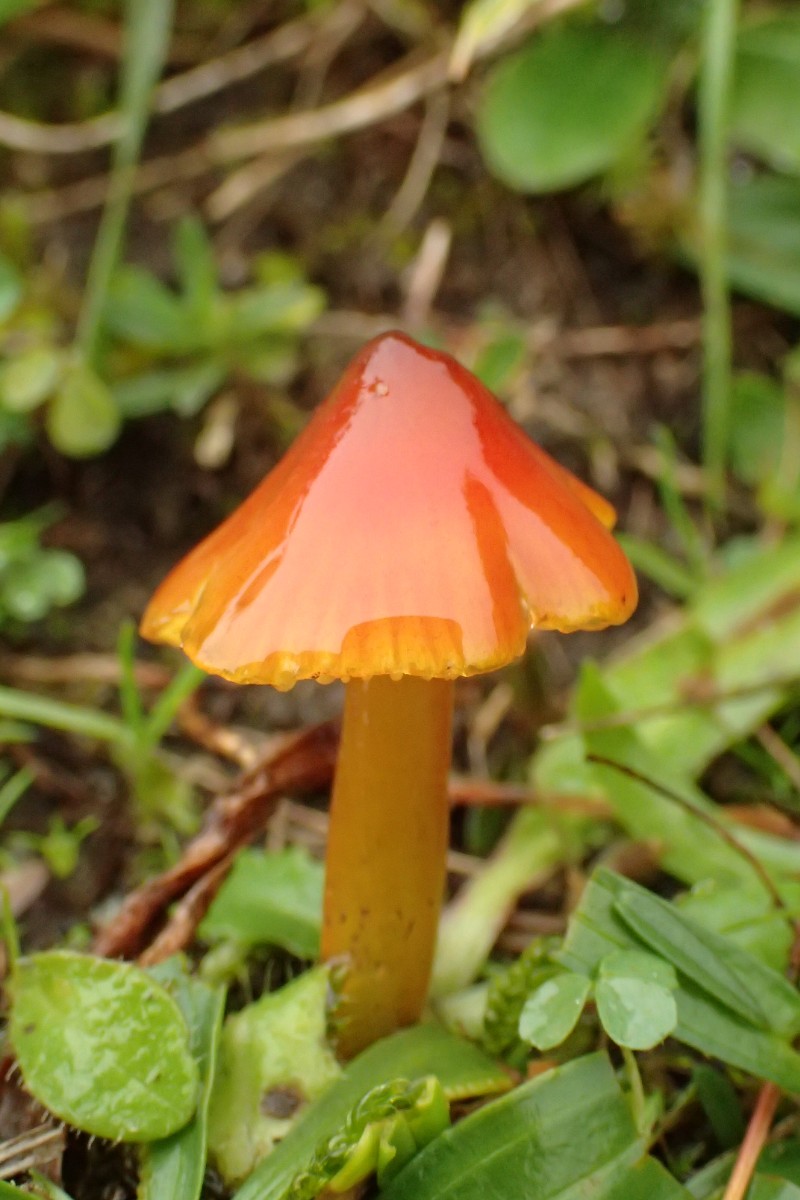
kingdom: Fungi
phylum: Basidiomycota
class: Agaricomycetes
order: Agaricales
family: Hygrophoraceae
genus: Hygrocybe
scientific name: Hygrocybe conica
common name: kegle-vokshat
